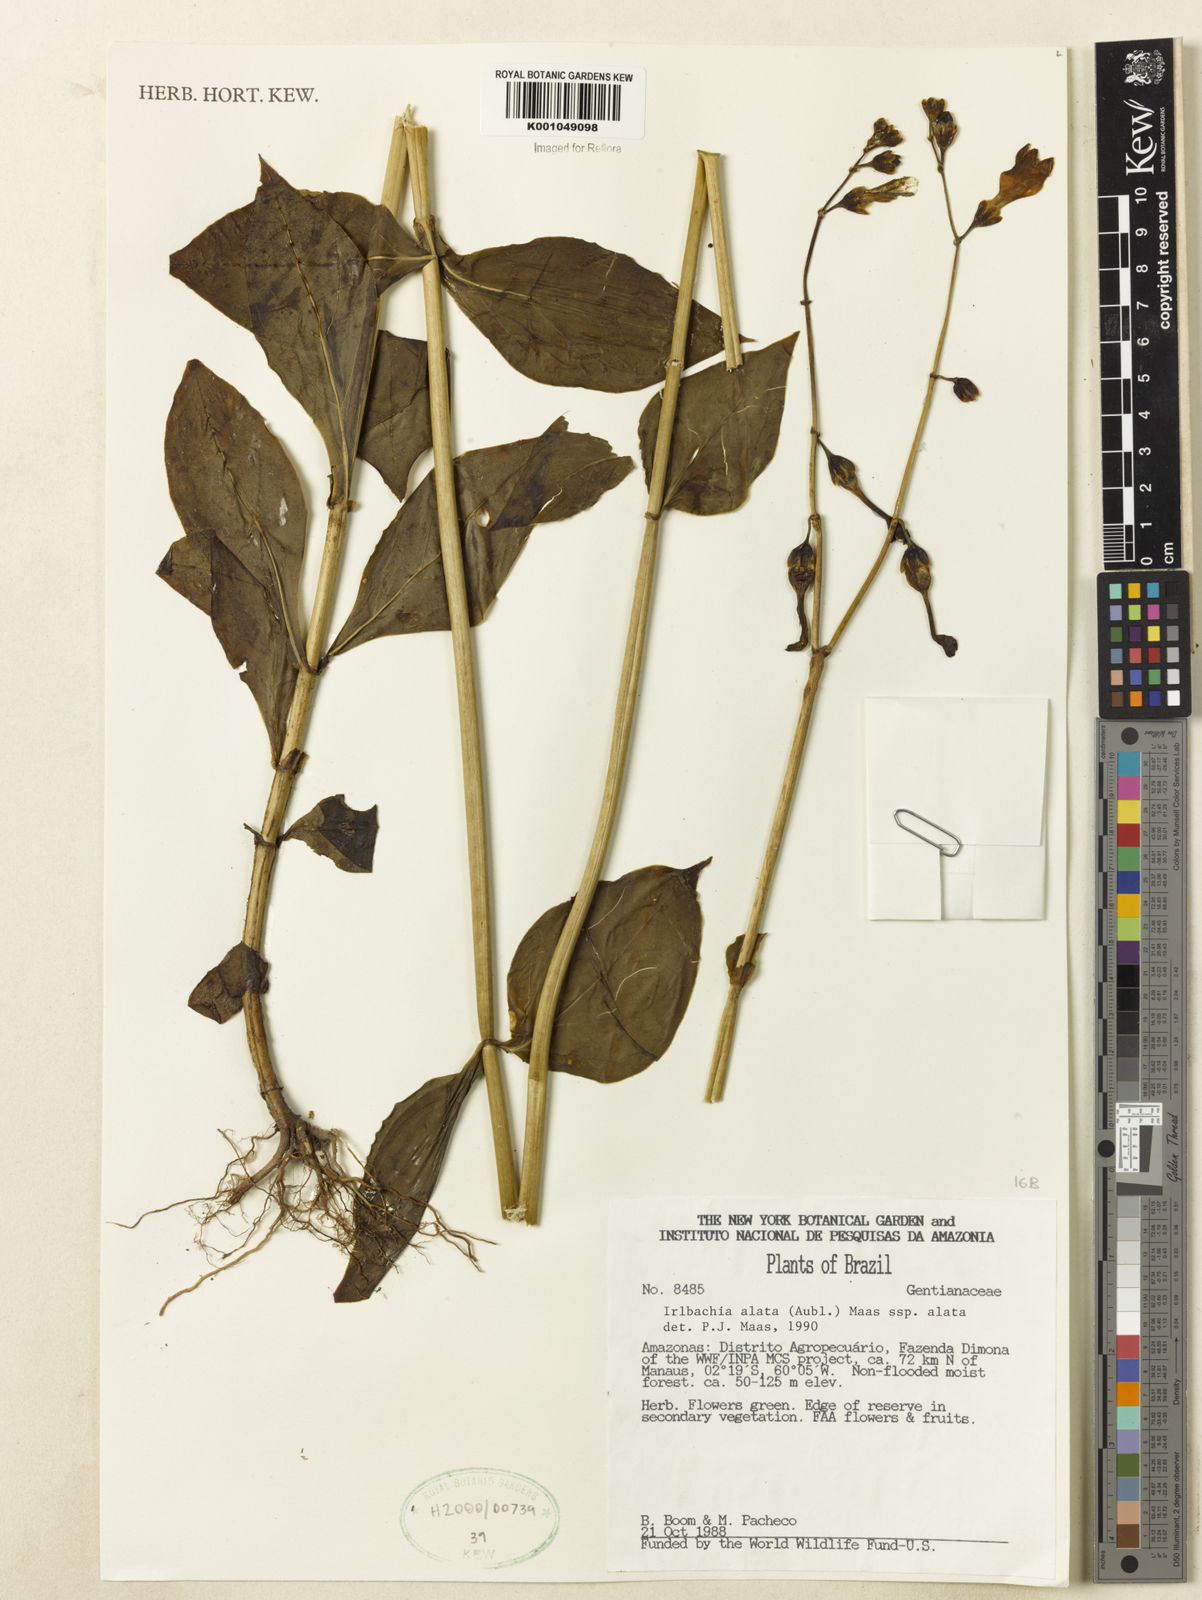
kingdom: Plantae
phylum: Tracheophyta
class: Magnoliopsida
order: Gentianales
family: Gentianaceae
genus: Chelonanthus
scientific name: Chelonanthus alatus
